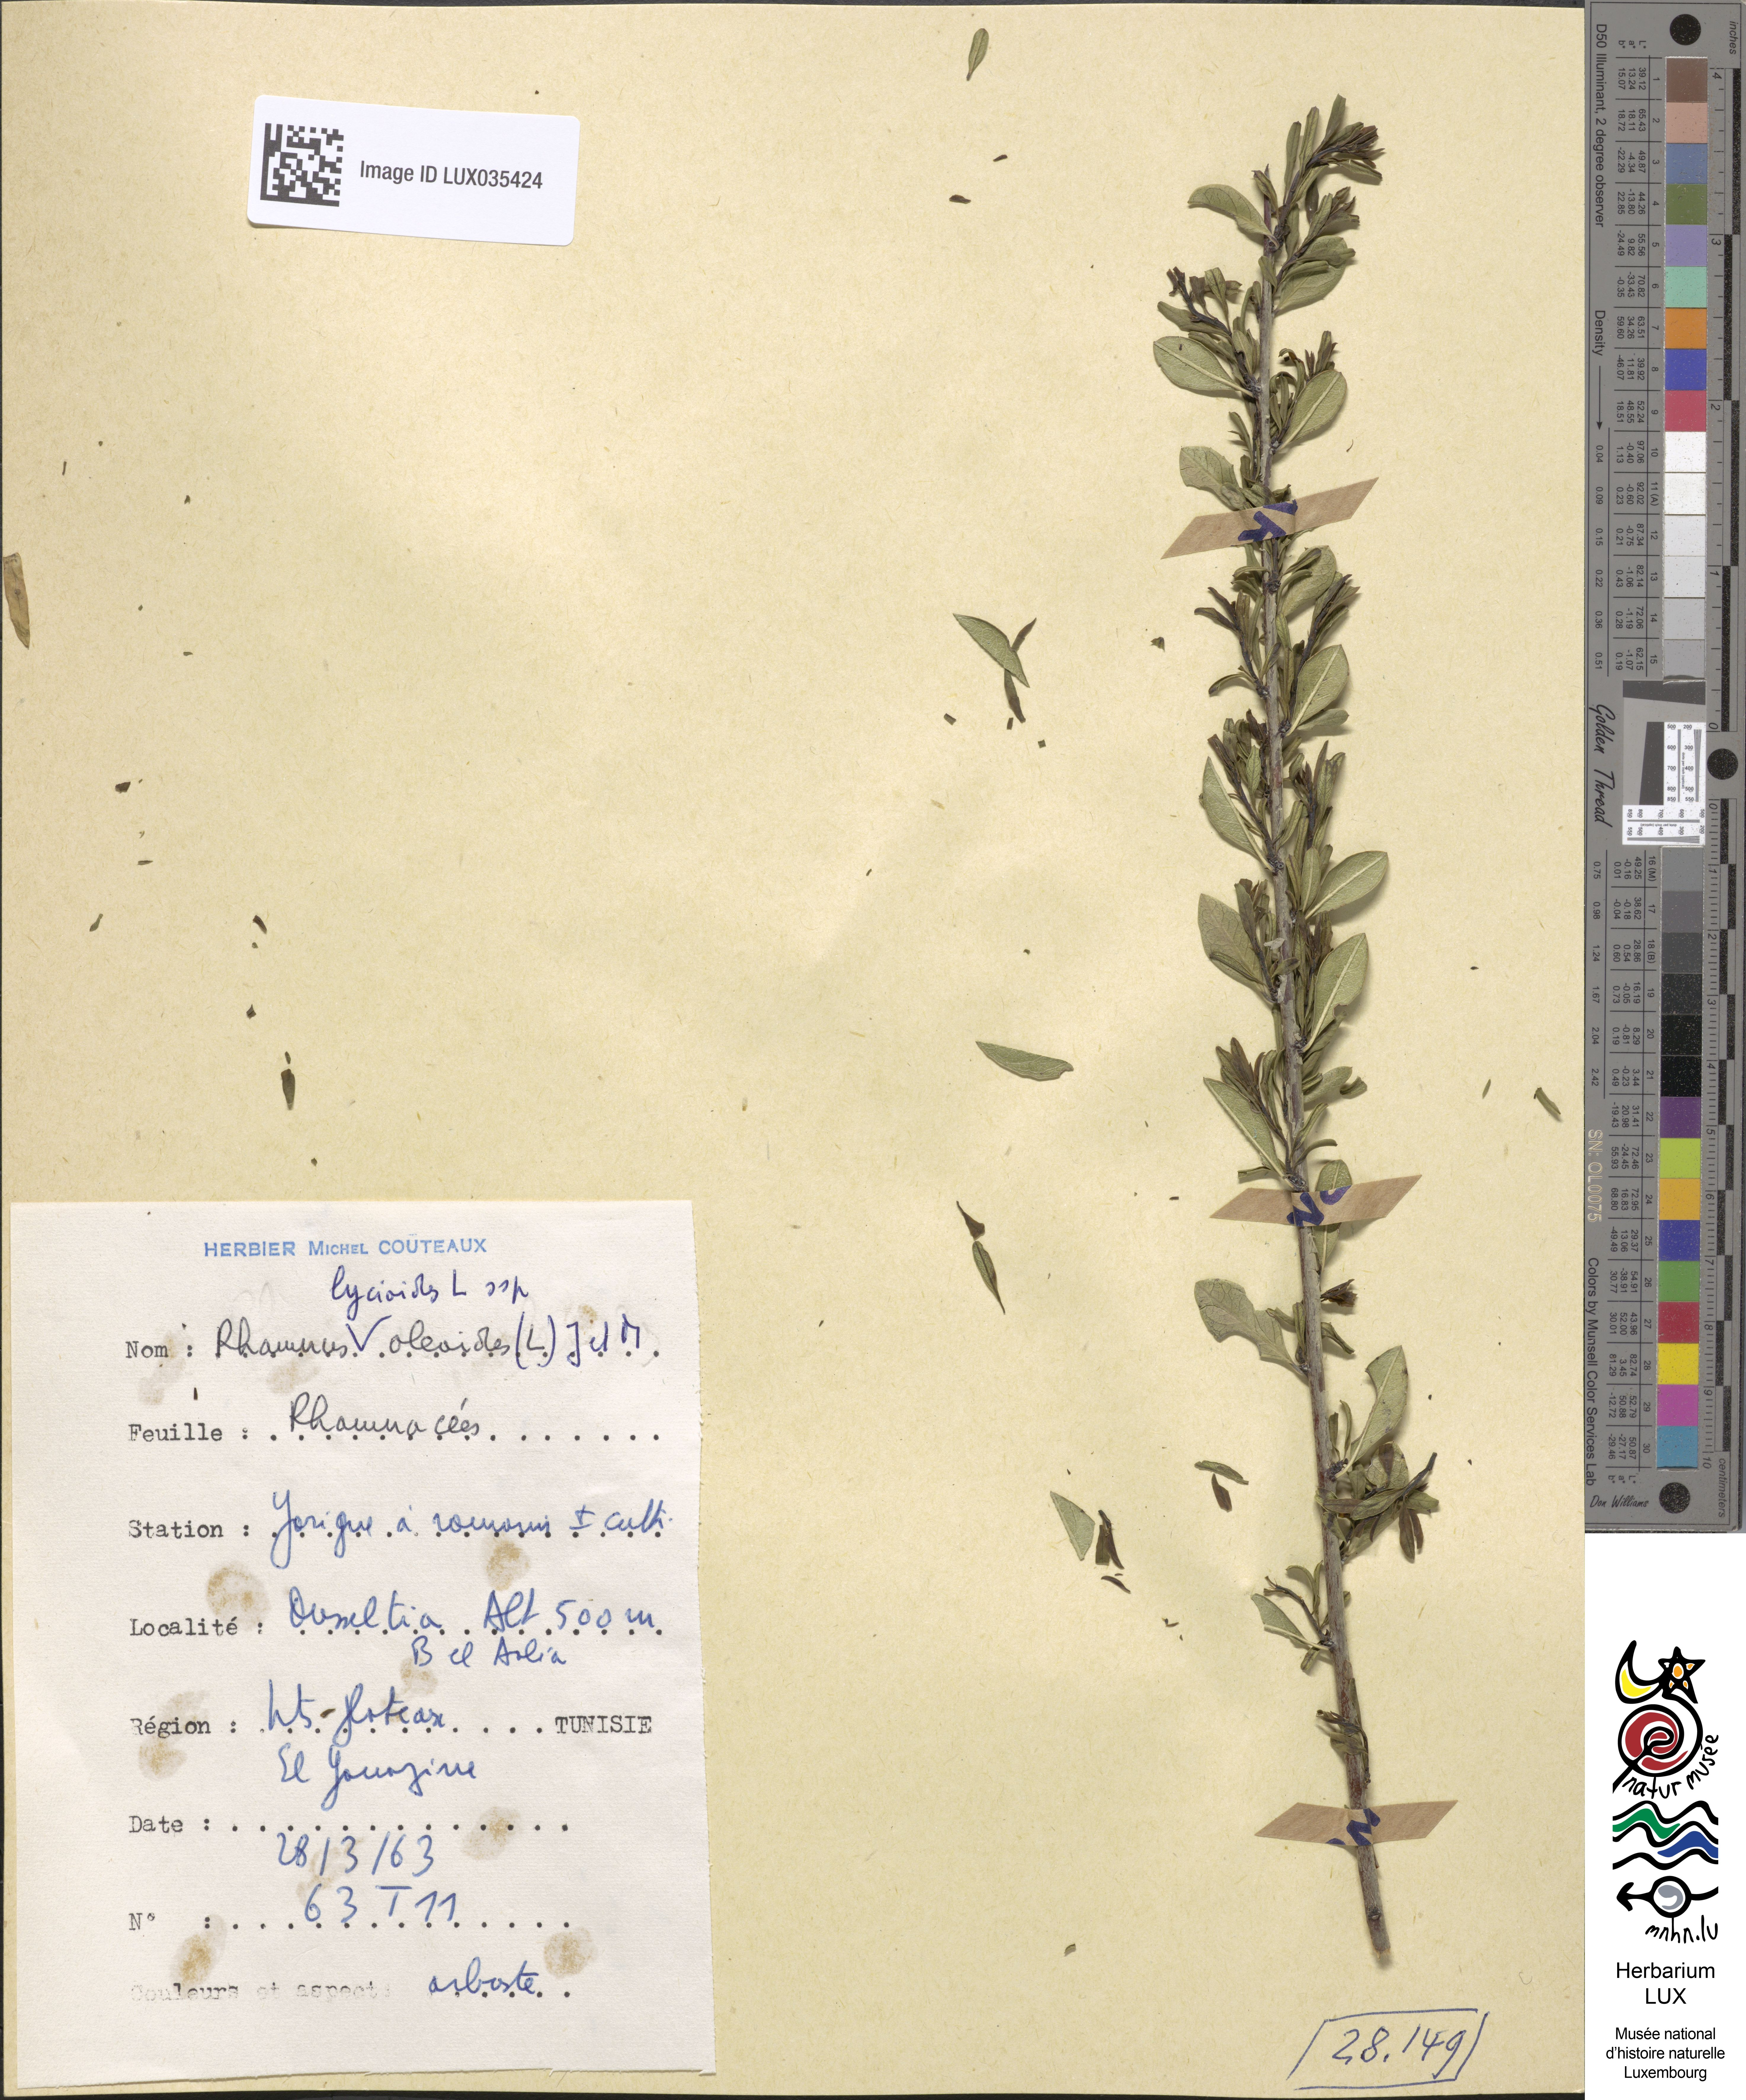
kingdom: Plantae
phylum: Tracheophyta
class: Magnoliopsida
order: Rosales
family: Rhamnaceae
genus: Rhamnus
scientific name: Rhamnus oleoides
